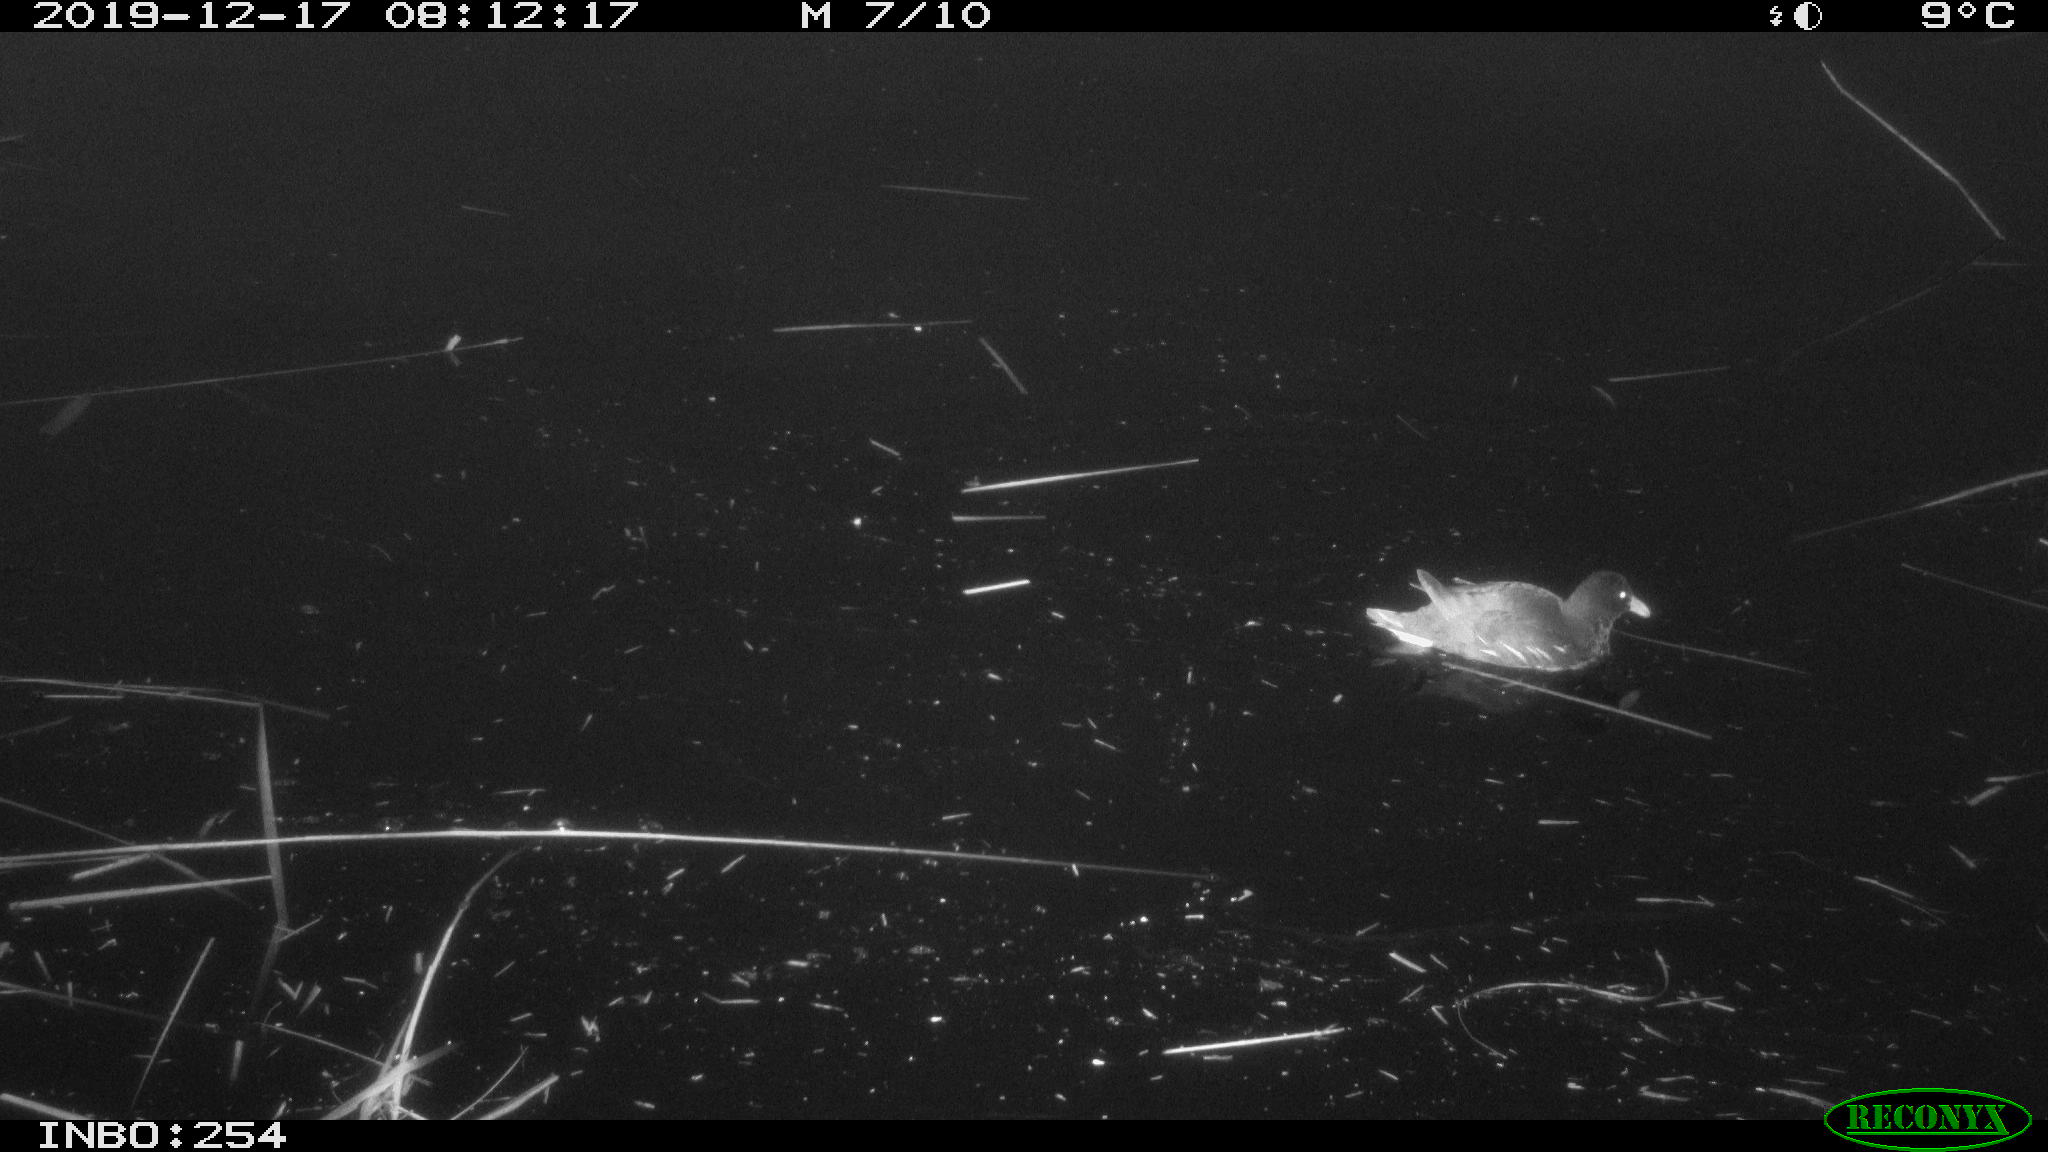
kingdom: Animalia
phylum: Chordata
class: Aves
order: Gruiformes
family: Rallidae
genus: Gallinula
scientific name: Gallinula chloropus
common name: Common moorhen
